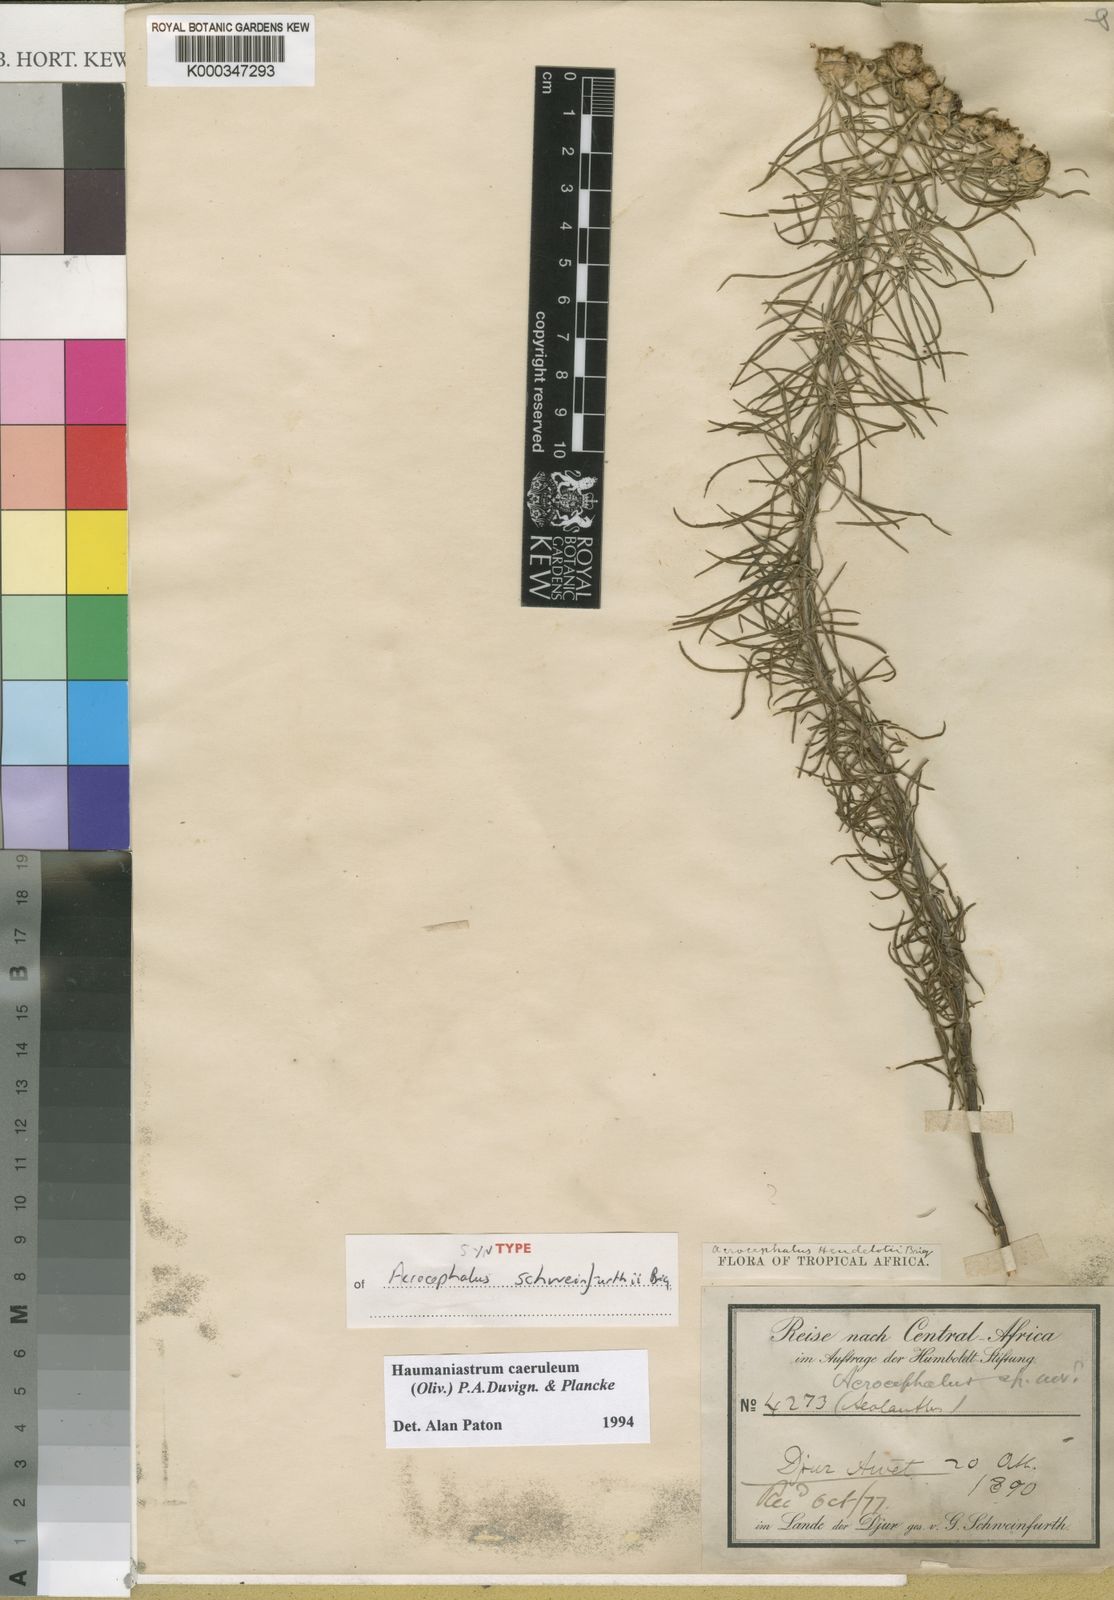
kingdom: Plantae
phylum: Tracheophyta
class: Magnoliopsida
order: Lamiales
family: Lamiaceae
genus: Haumaniastrum
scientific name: Haumaniastrum caeruleum
